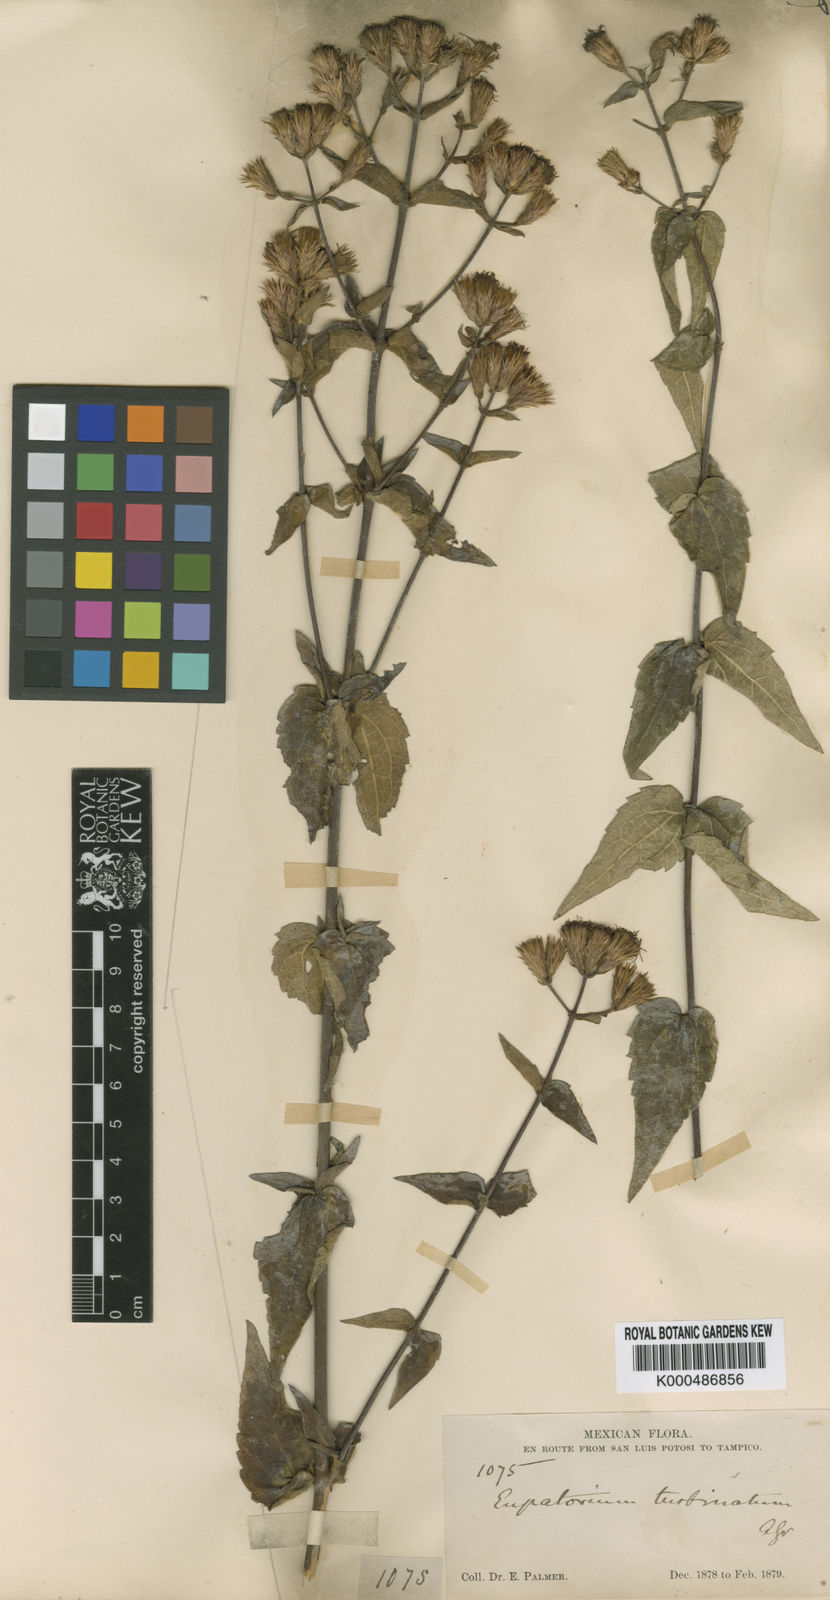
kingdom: Plantae
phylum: Tracheophyta
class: Magnoliopsida
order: Asterales
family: Asteraceae
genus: Chromolaena
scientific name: Chromolaena bigelovii
